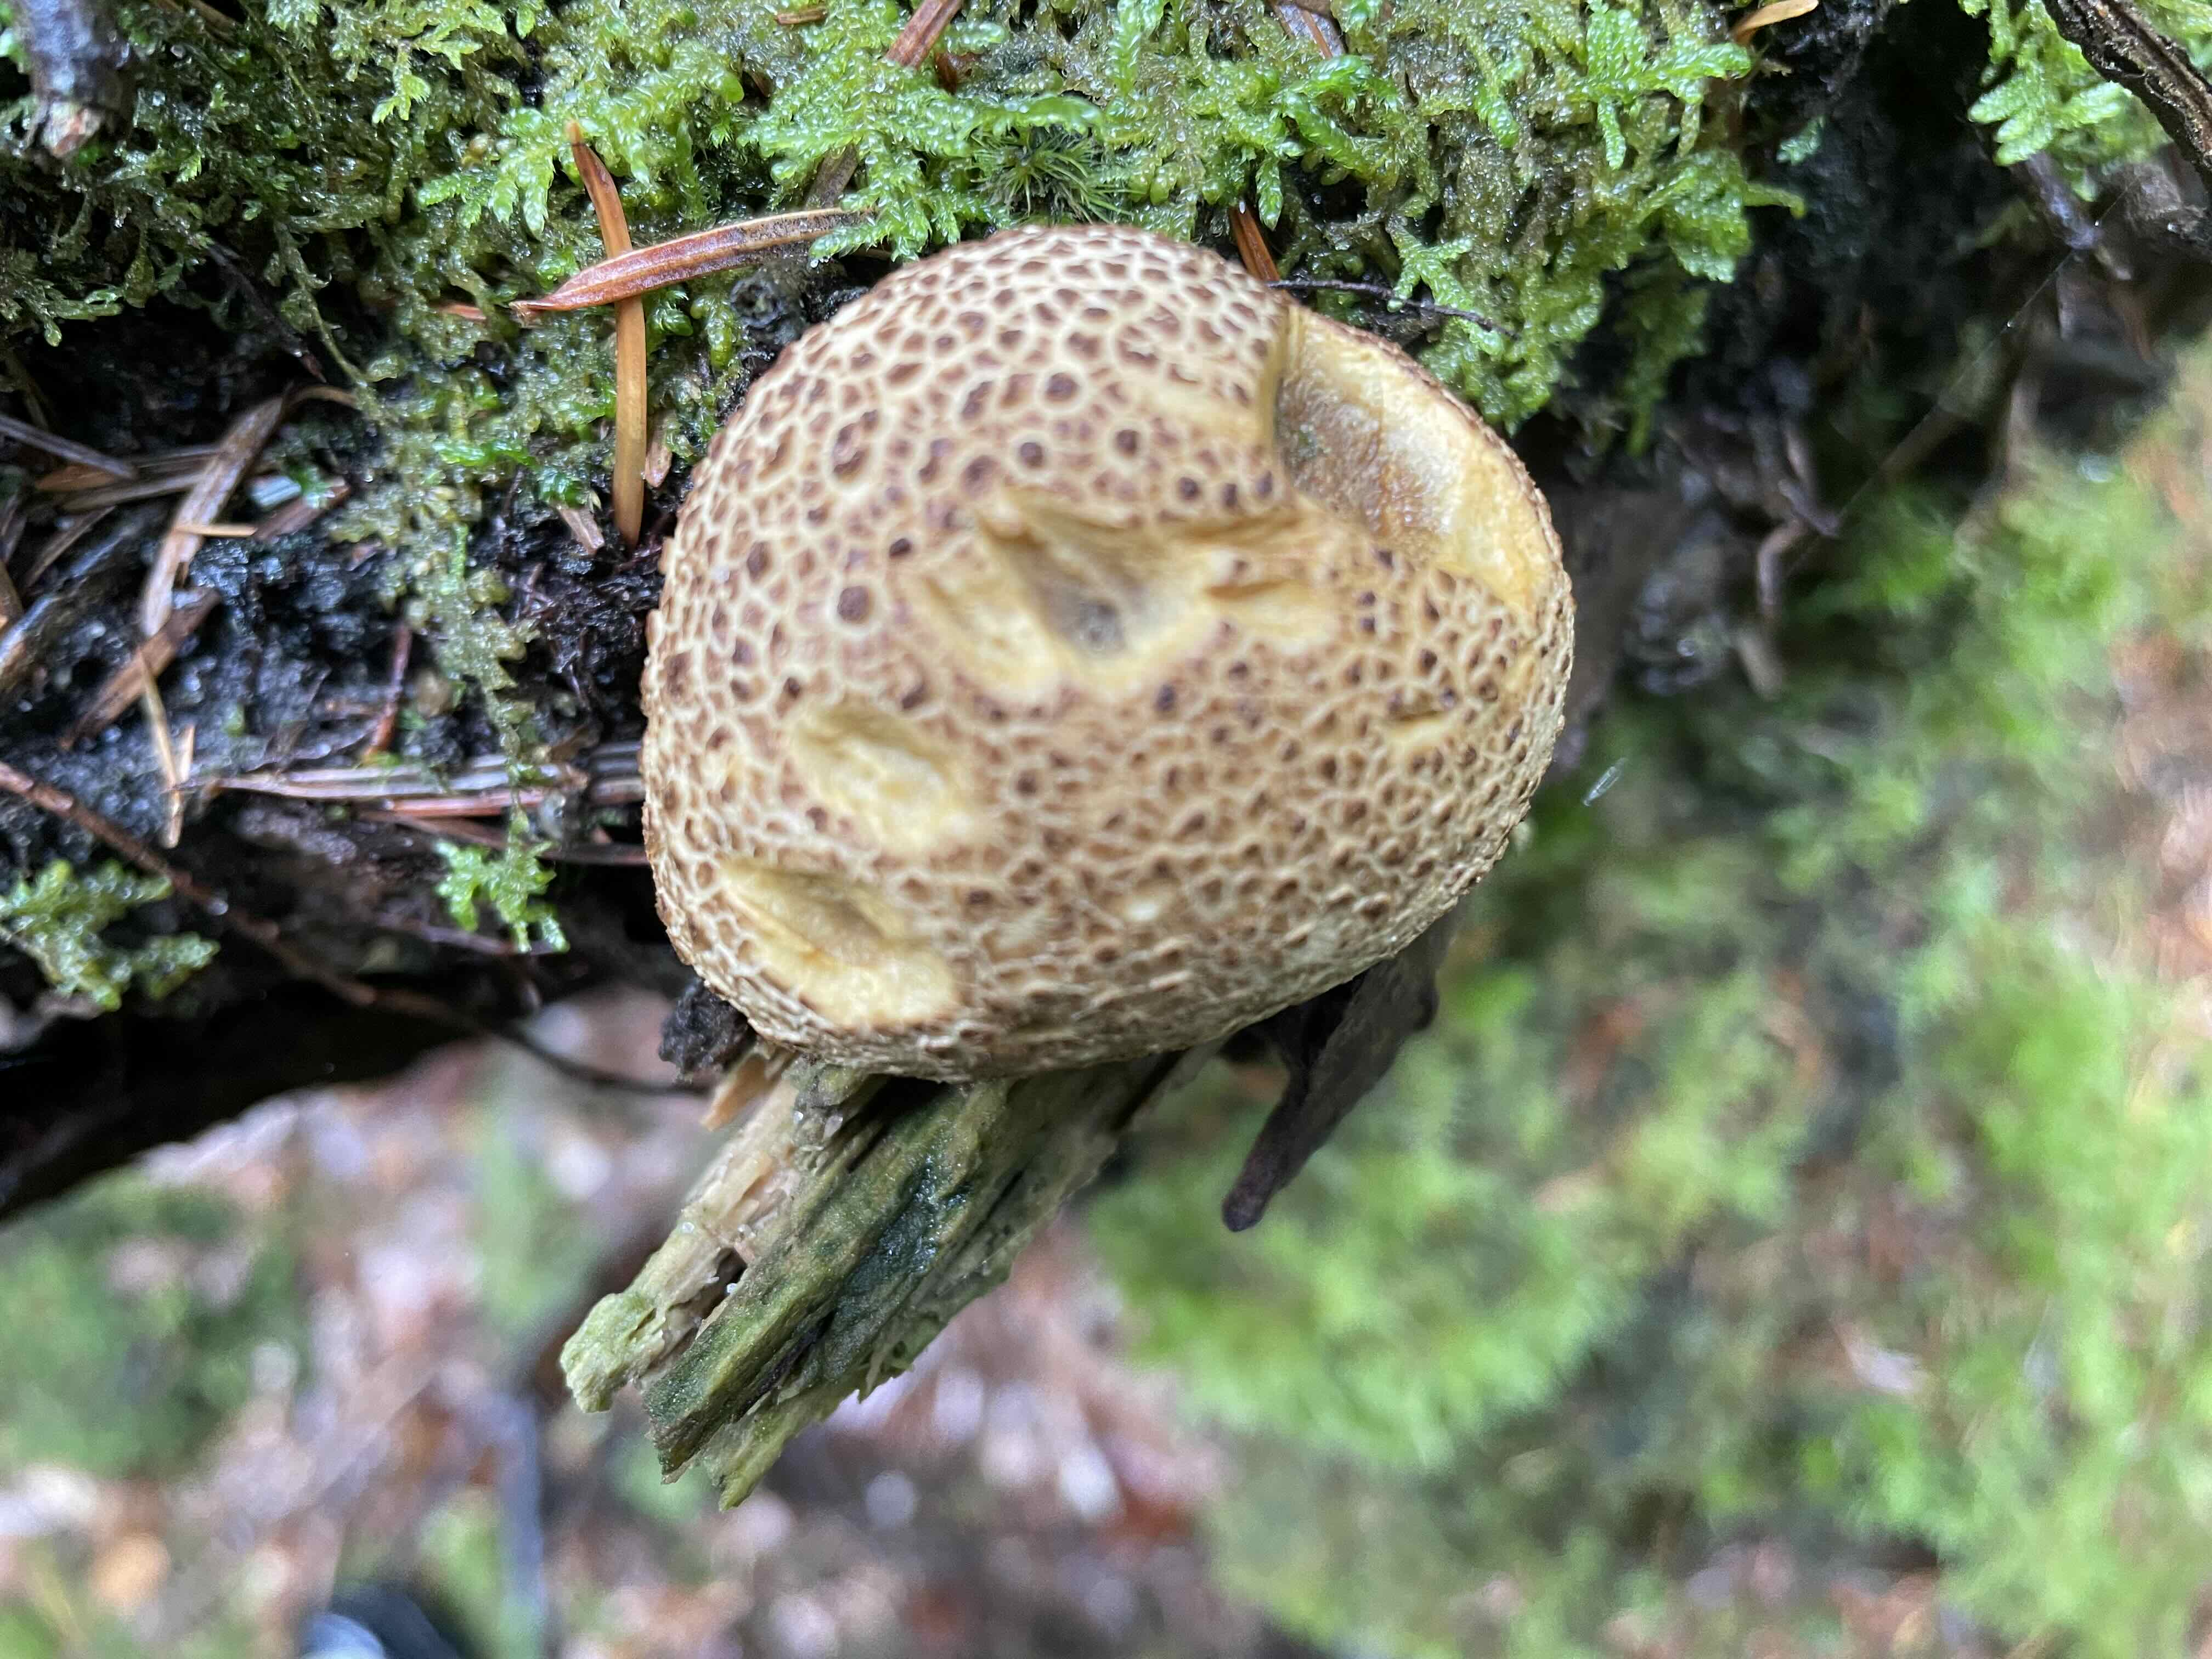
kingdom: Fungi
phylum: Basidiomycota
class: Agaricomycetes
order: Boletales
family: Sclerodermataceae
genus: Scleroderma
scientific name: Scleroderma citrinum
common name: almindelig bruskbold
